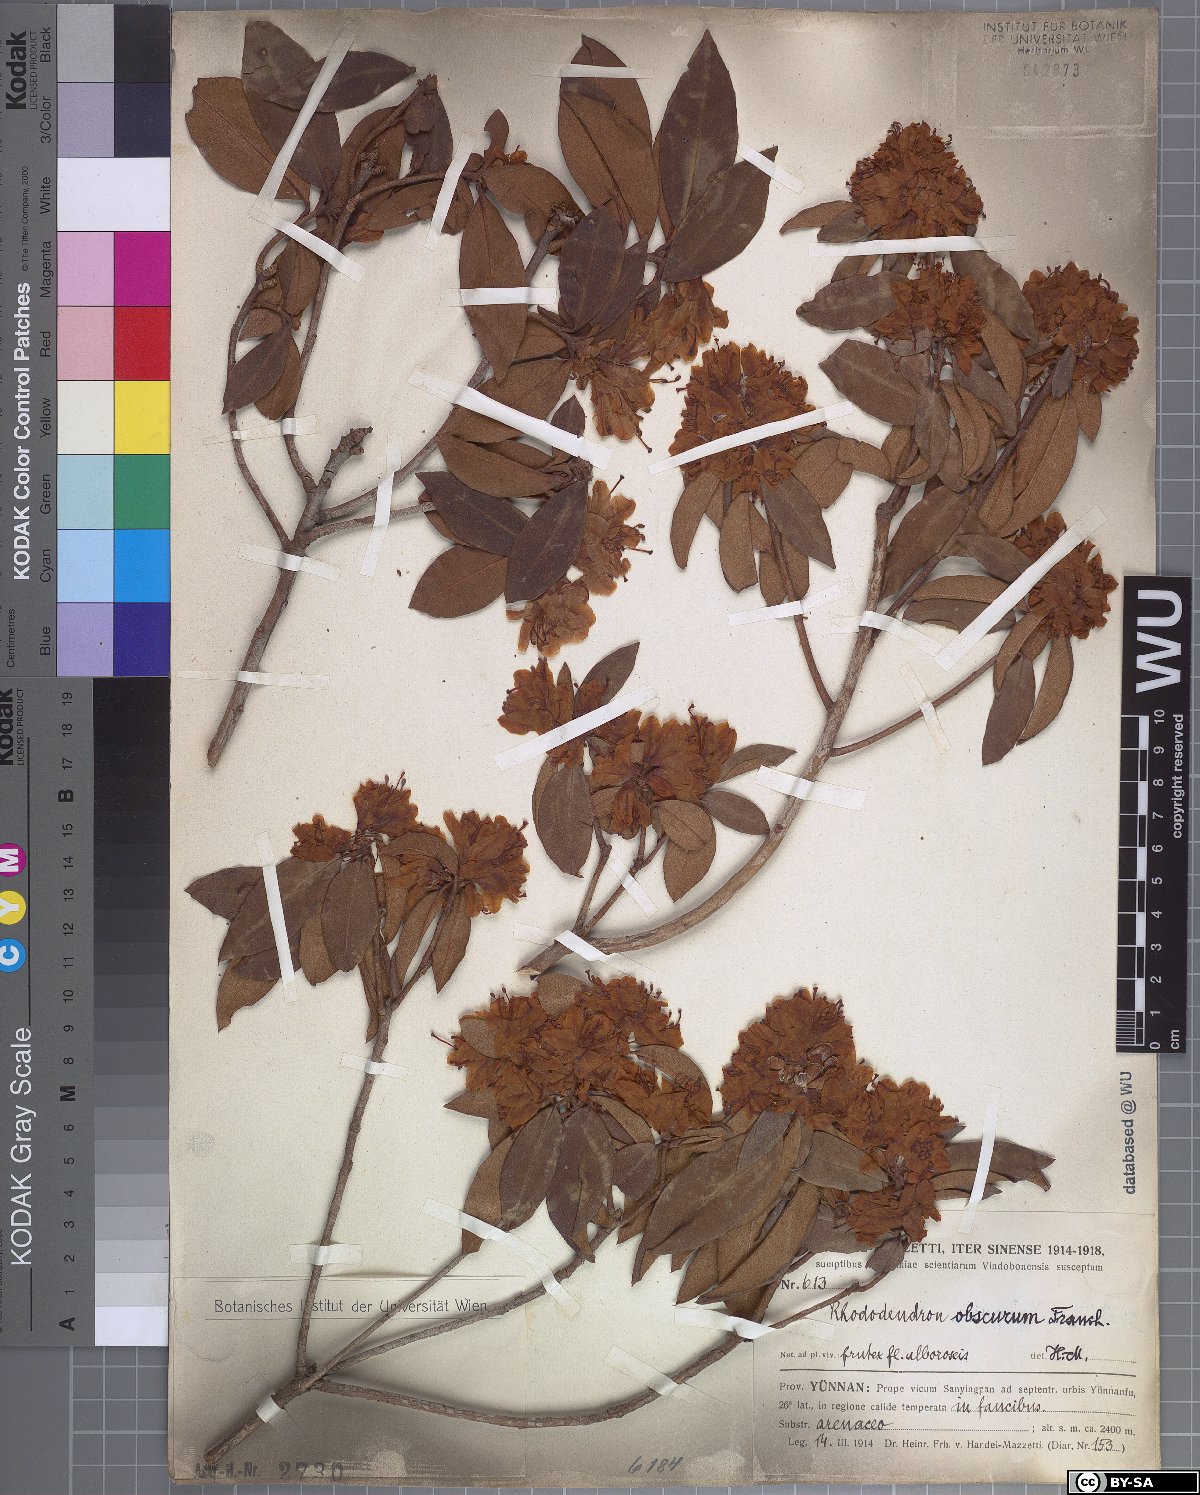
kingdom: Plantae
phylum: Tracheophyta
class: Magnoliopsida
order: Ericales
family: Ericaceae
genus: Rhododendron
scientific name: Rhododendron benomense
